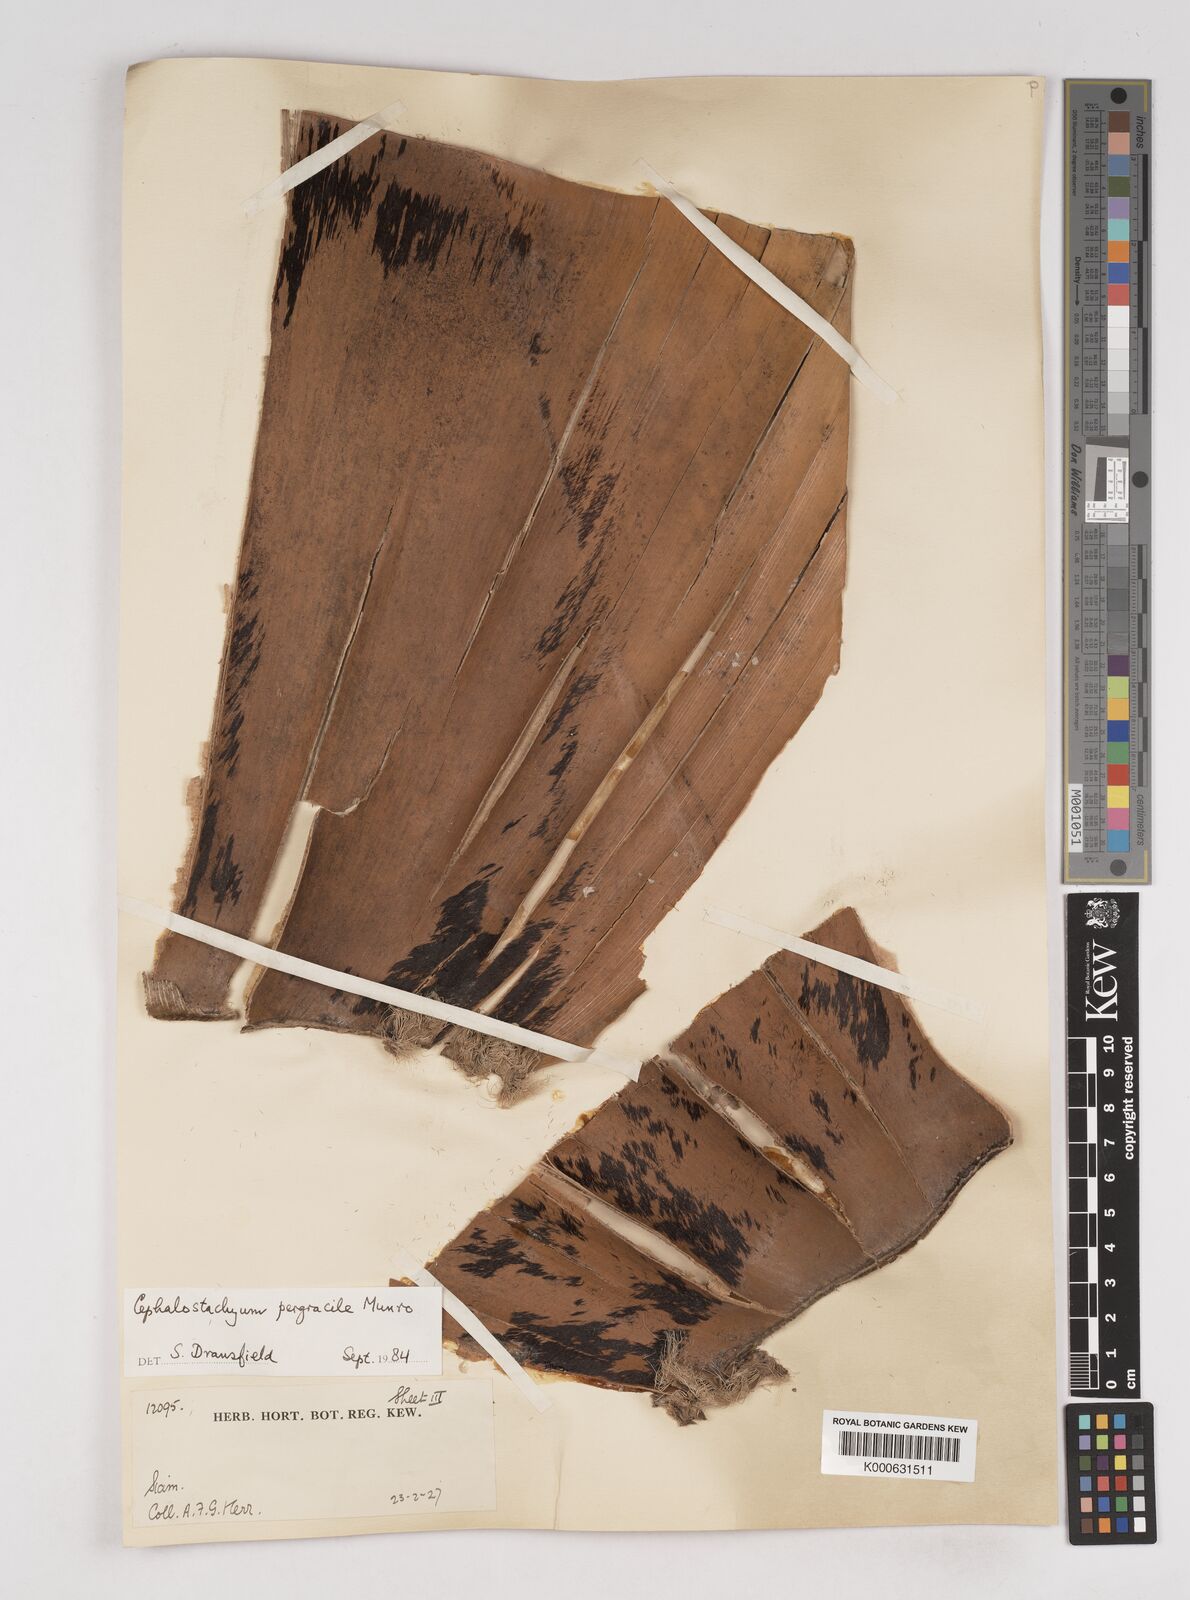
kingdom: Plantae
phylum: Tracheophyta
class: Liliopsida
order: Poales
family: Poaceae
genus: Schizostachyum
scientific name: Schizostachyum pergracile
